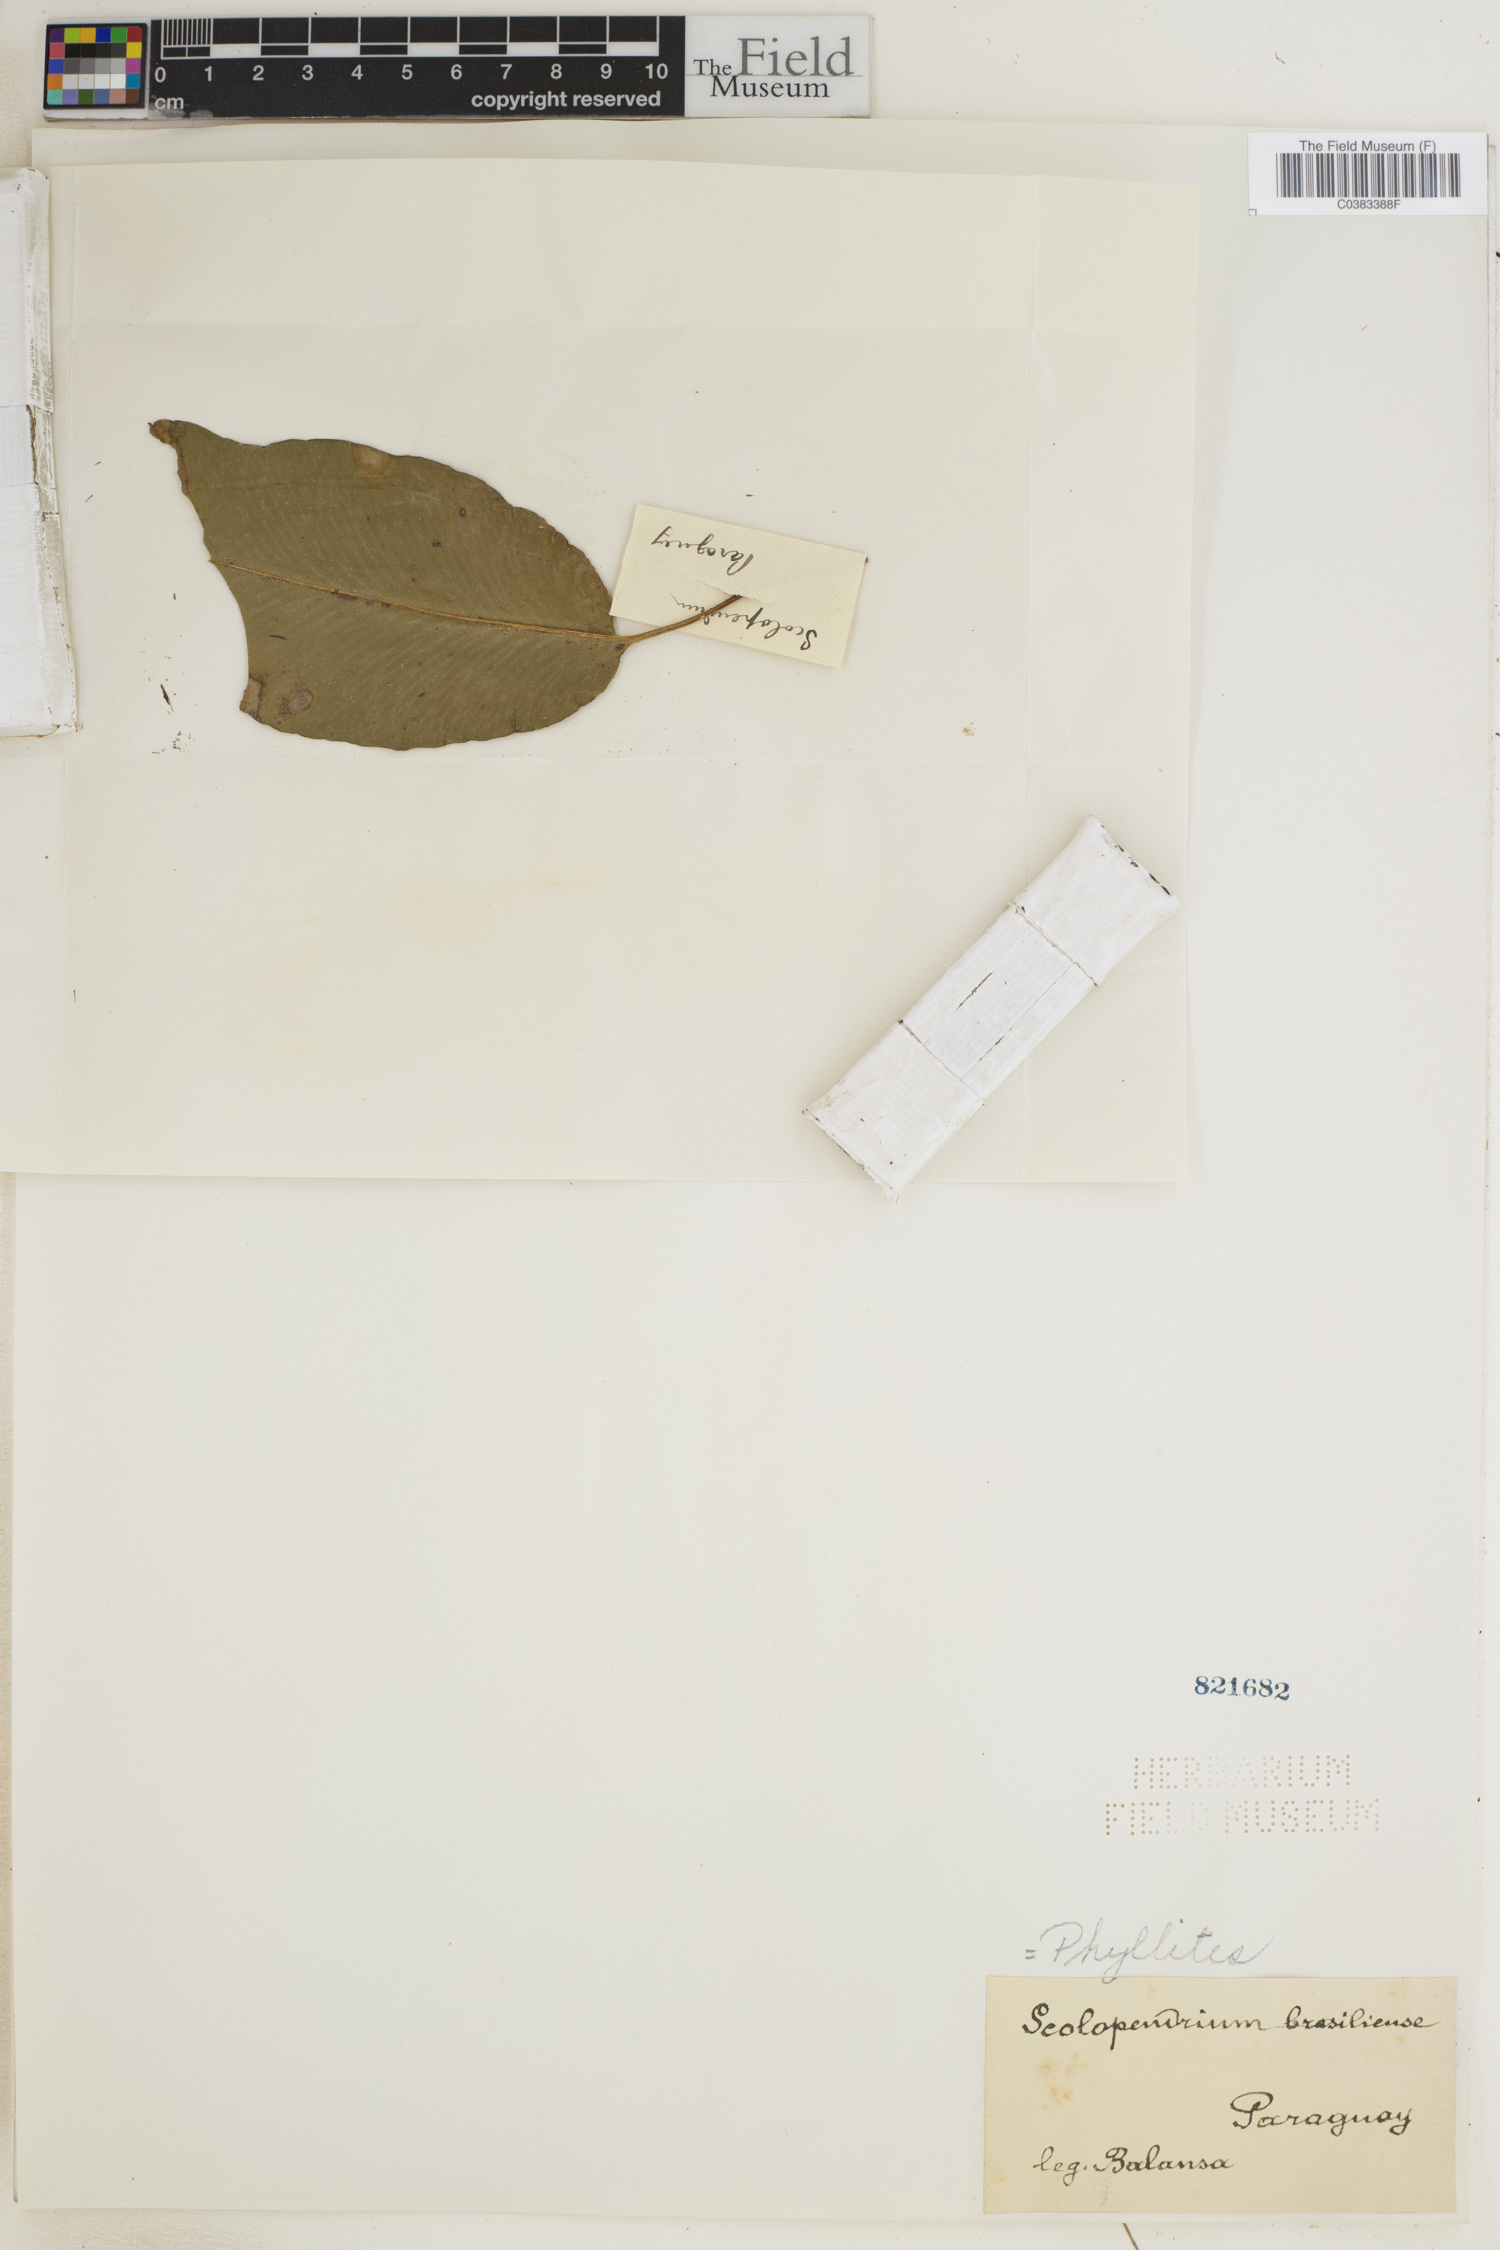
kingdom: Plantae
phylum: Tracheophyta
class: Polypodiopsida
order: Polypodiales
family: Aspleniaceae
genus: Asplenium
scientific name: Asplenium brasiliense
